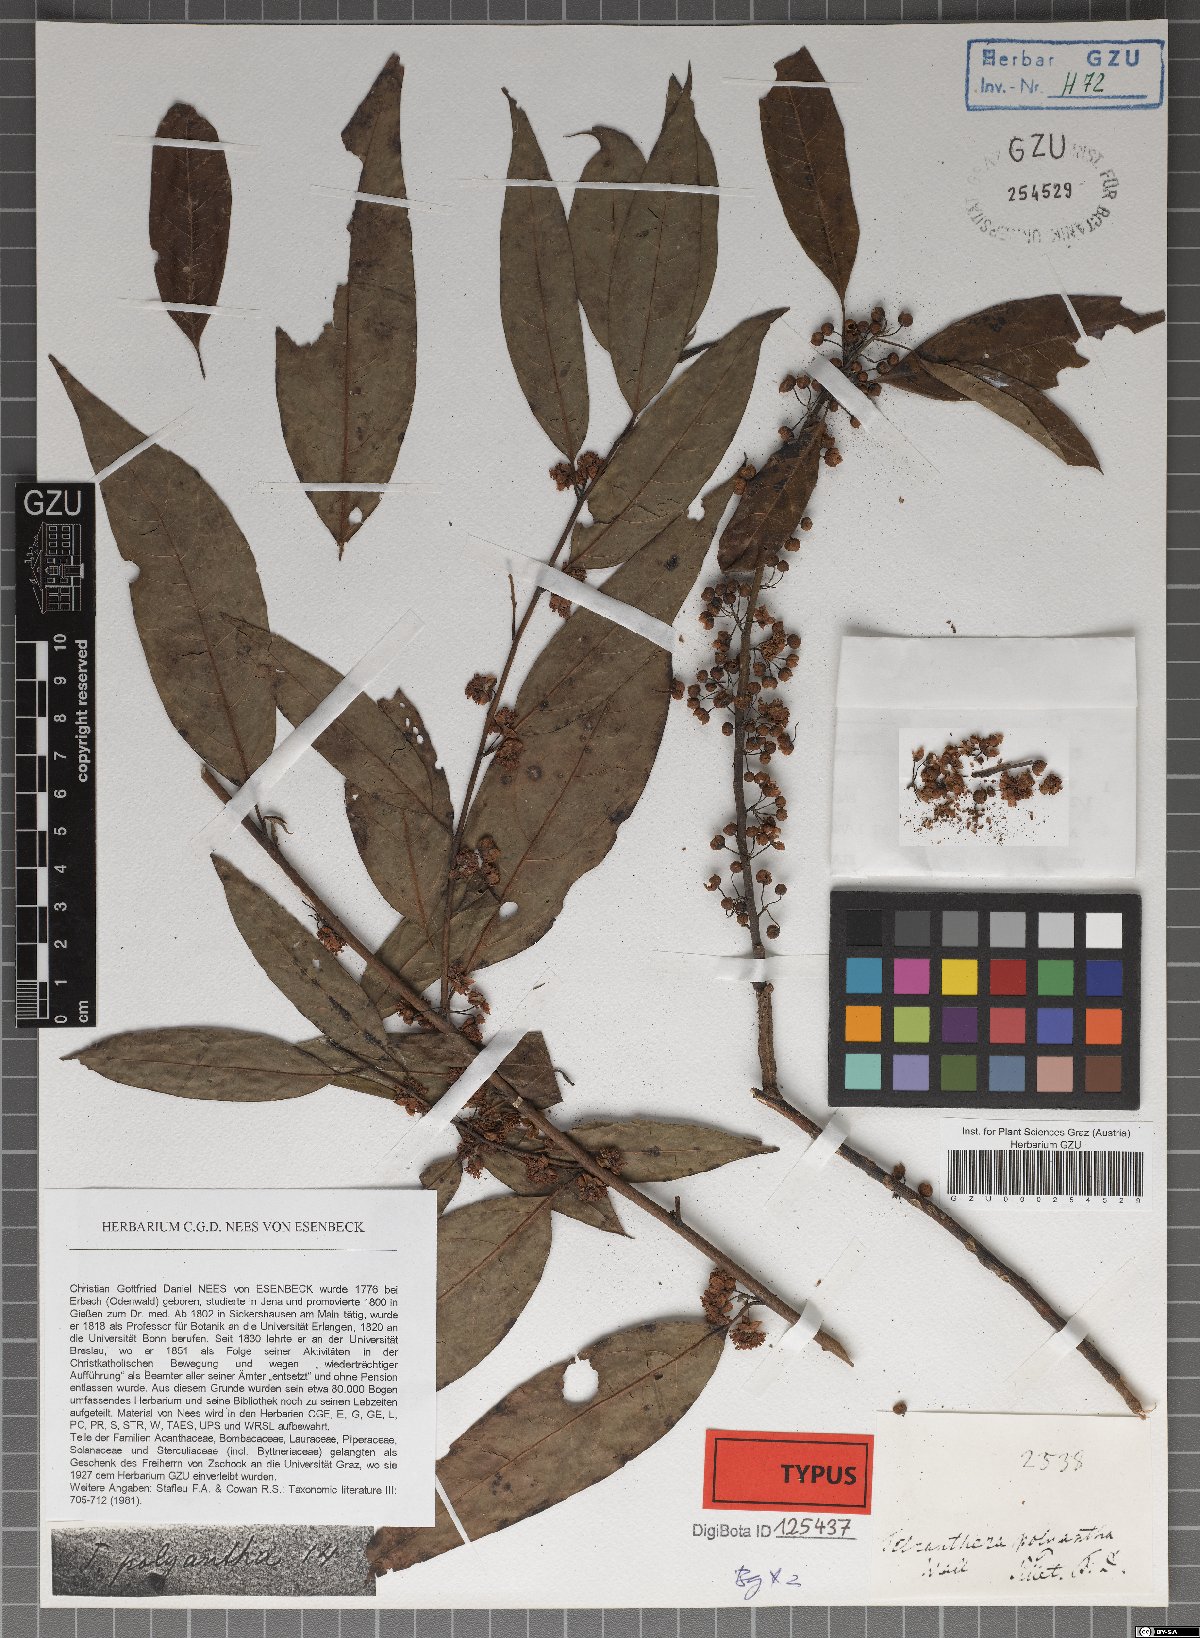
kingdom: Plantae
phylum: Tracheophyta
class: Magnoliopsida
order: Laurales
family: Lauraceae
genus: Litsea
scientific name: Litsea cubeba
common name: Mountain-pepper
